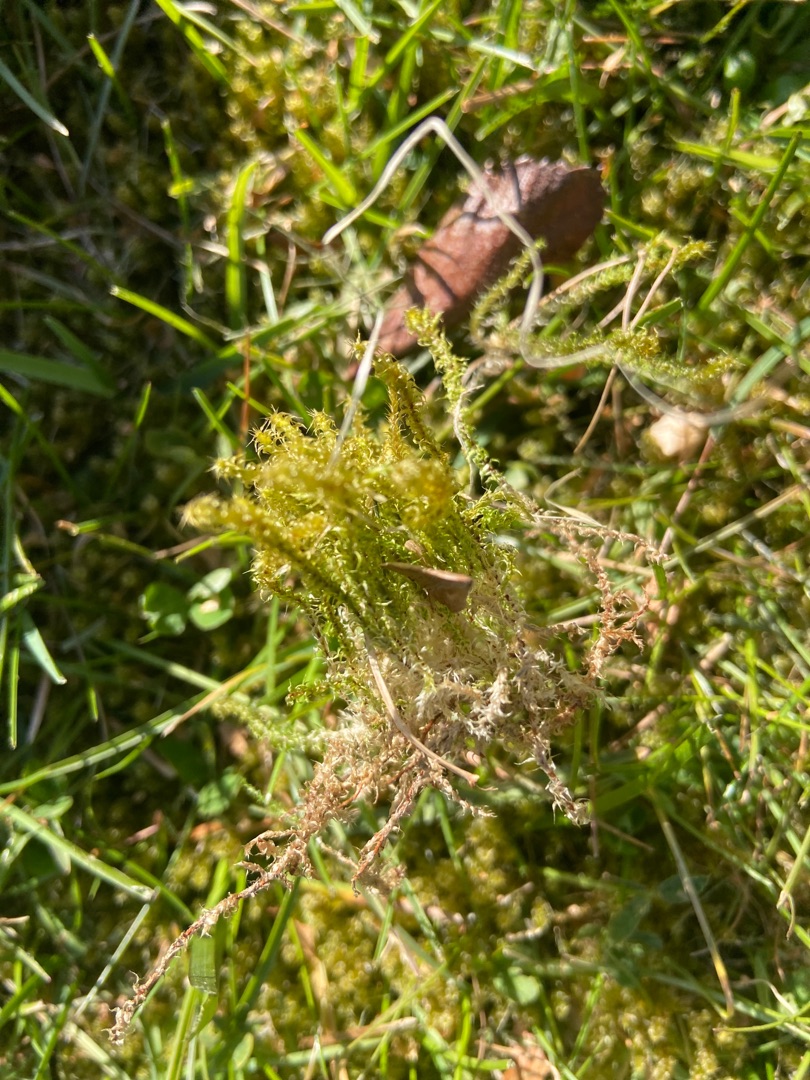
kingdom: Plantae
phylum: Bryophyta
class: Bryopsida
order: Hypnales
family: Hylocomiaceae
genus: Rhytidiadelphus
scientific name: Rhytidiadelphus squarrosus
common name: Plæne-kransemos
